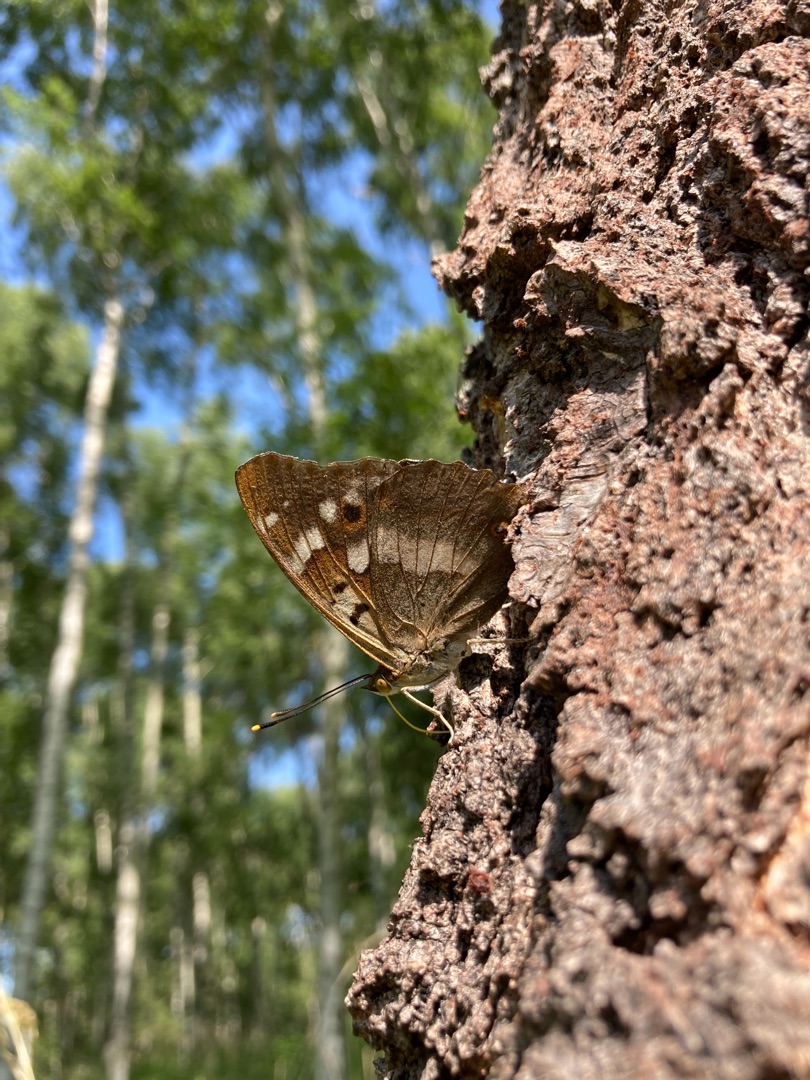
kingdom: Animalia
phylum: Arthropoda
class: Insecta
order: Lepidoptera
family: Nymphalidae
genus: Apatura
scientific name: Apatura ilia
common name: Ilia
